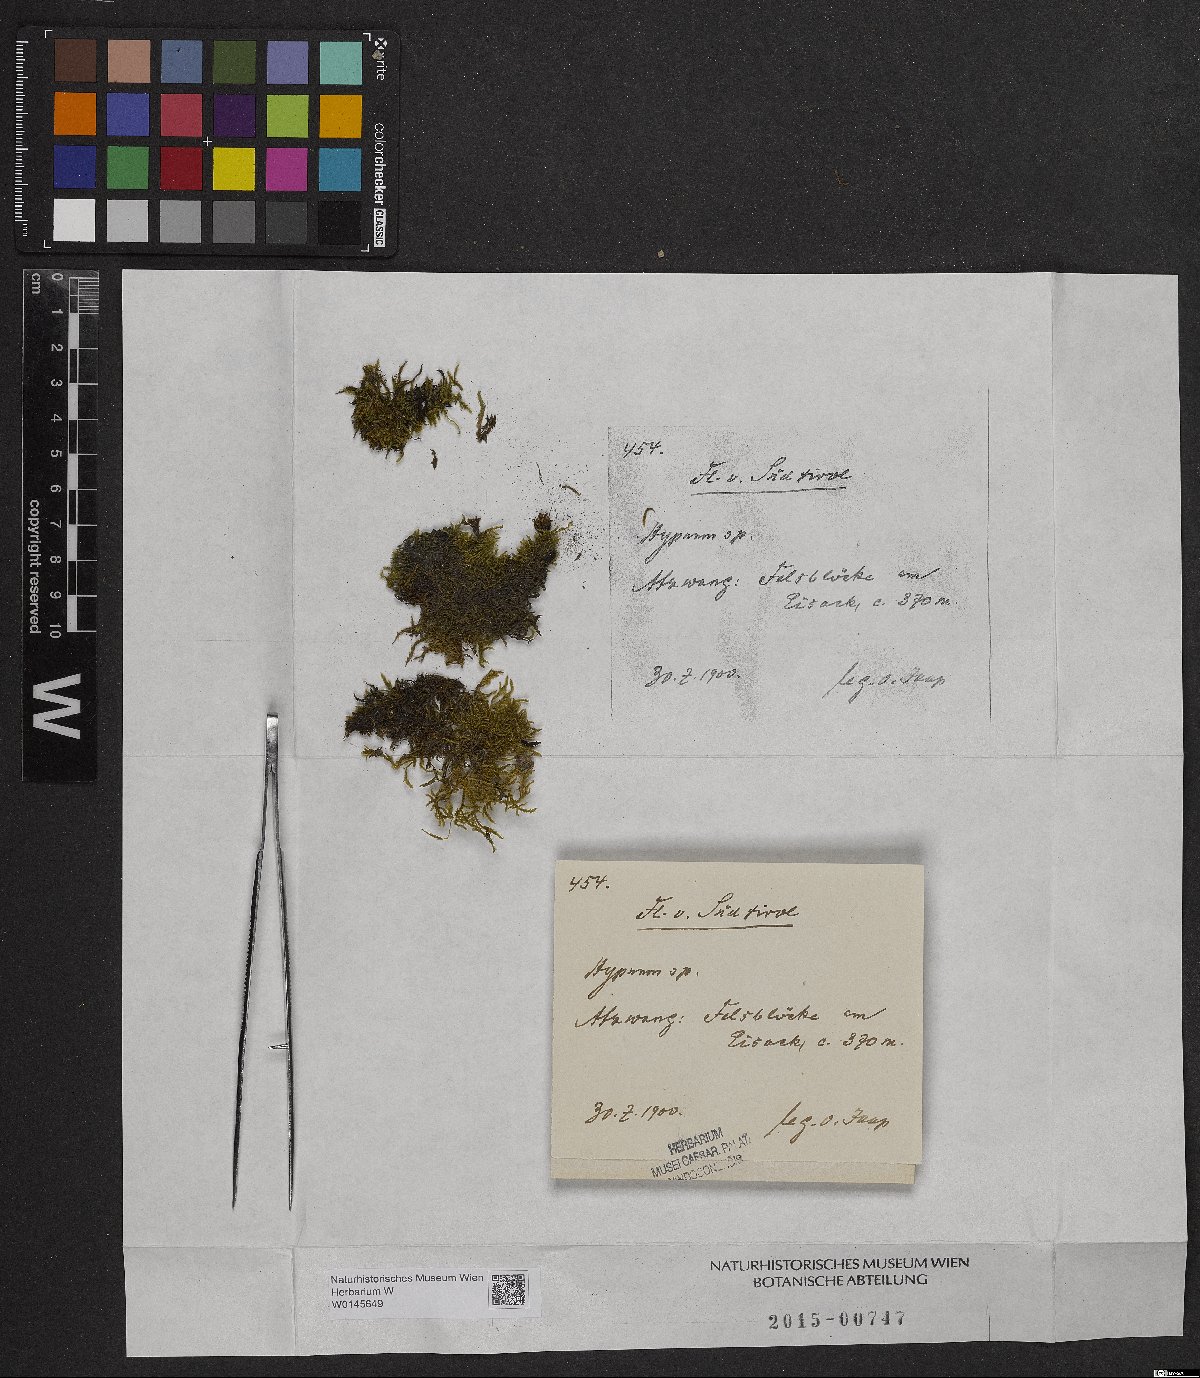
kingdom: Plantae
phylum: Bryophyta
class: Bryopsida
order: Hypnales
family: Hypnaceae
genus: Hypnum
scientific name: Hypnum
